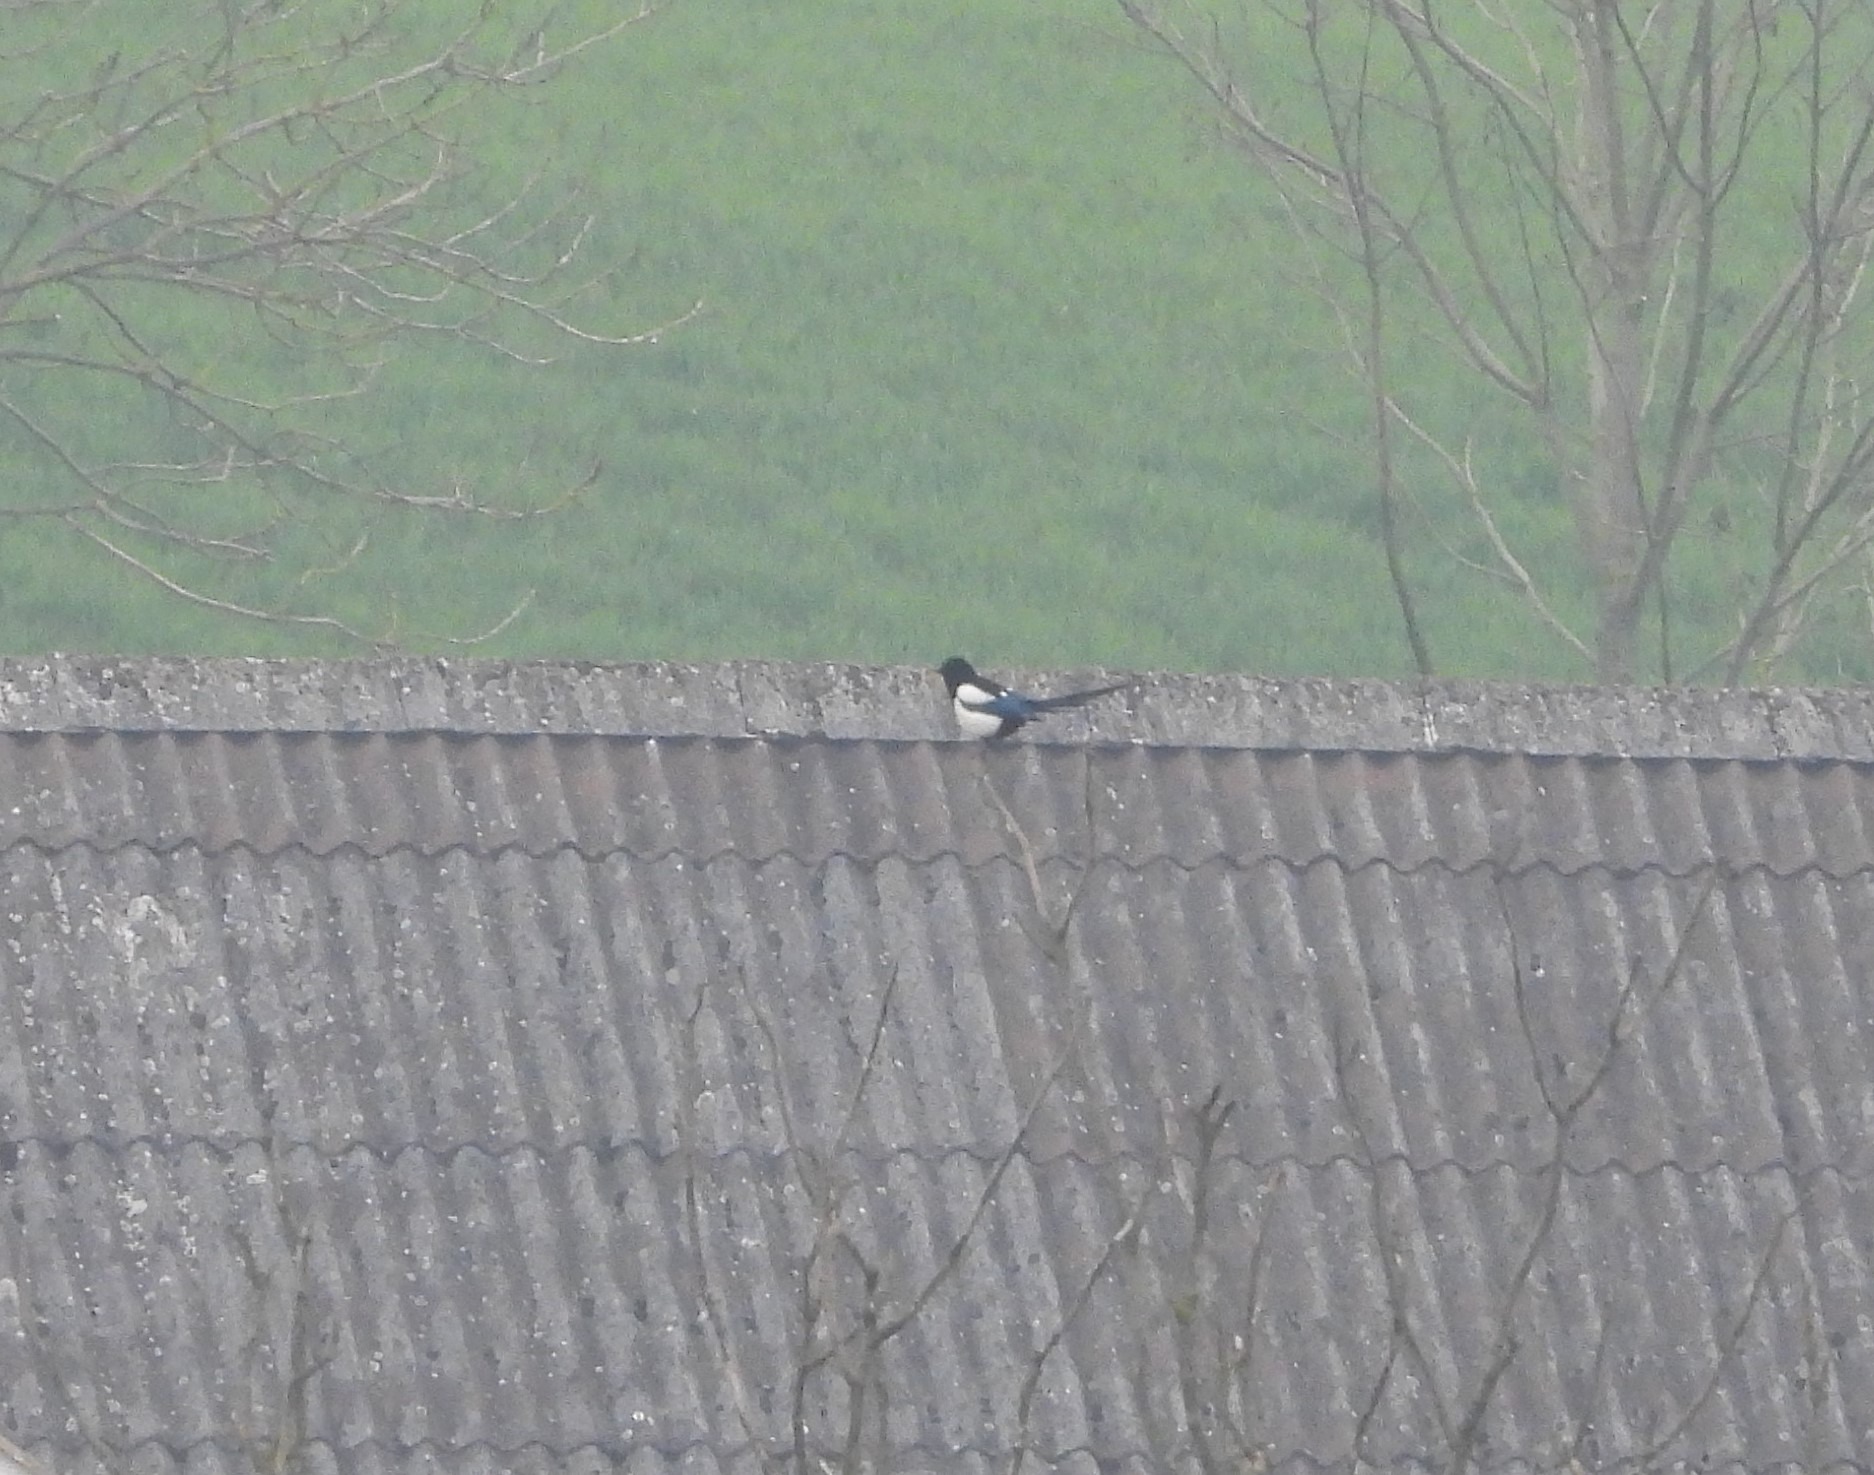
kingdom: Animalia
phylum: Chordata
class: Aves
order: Passeriformes
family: Corvidae
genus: Pica
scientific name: Pica pica
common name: Husskade
